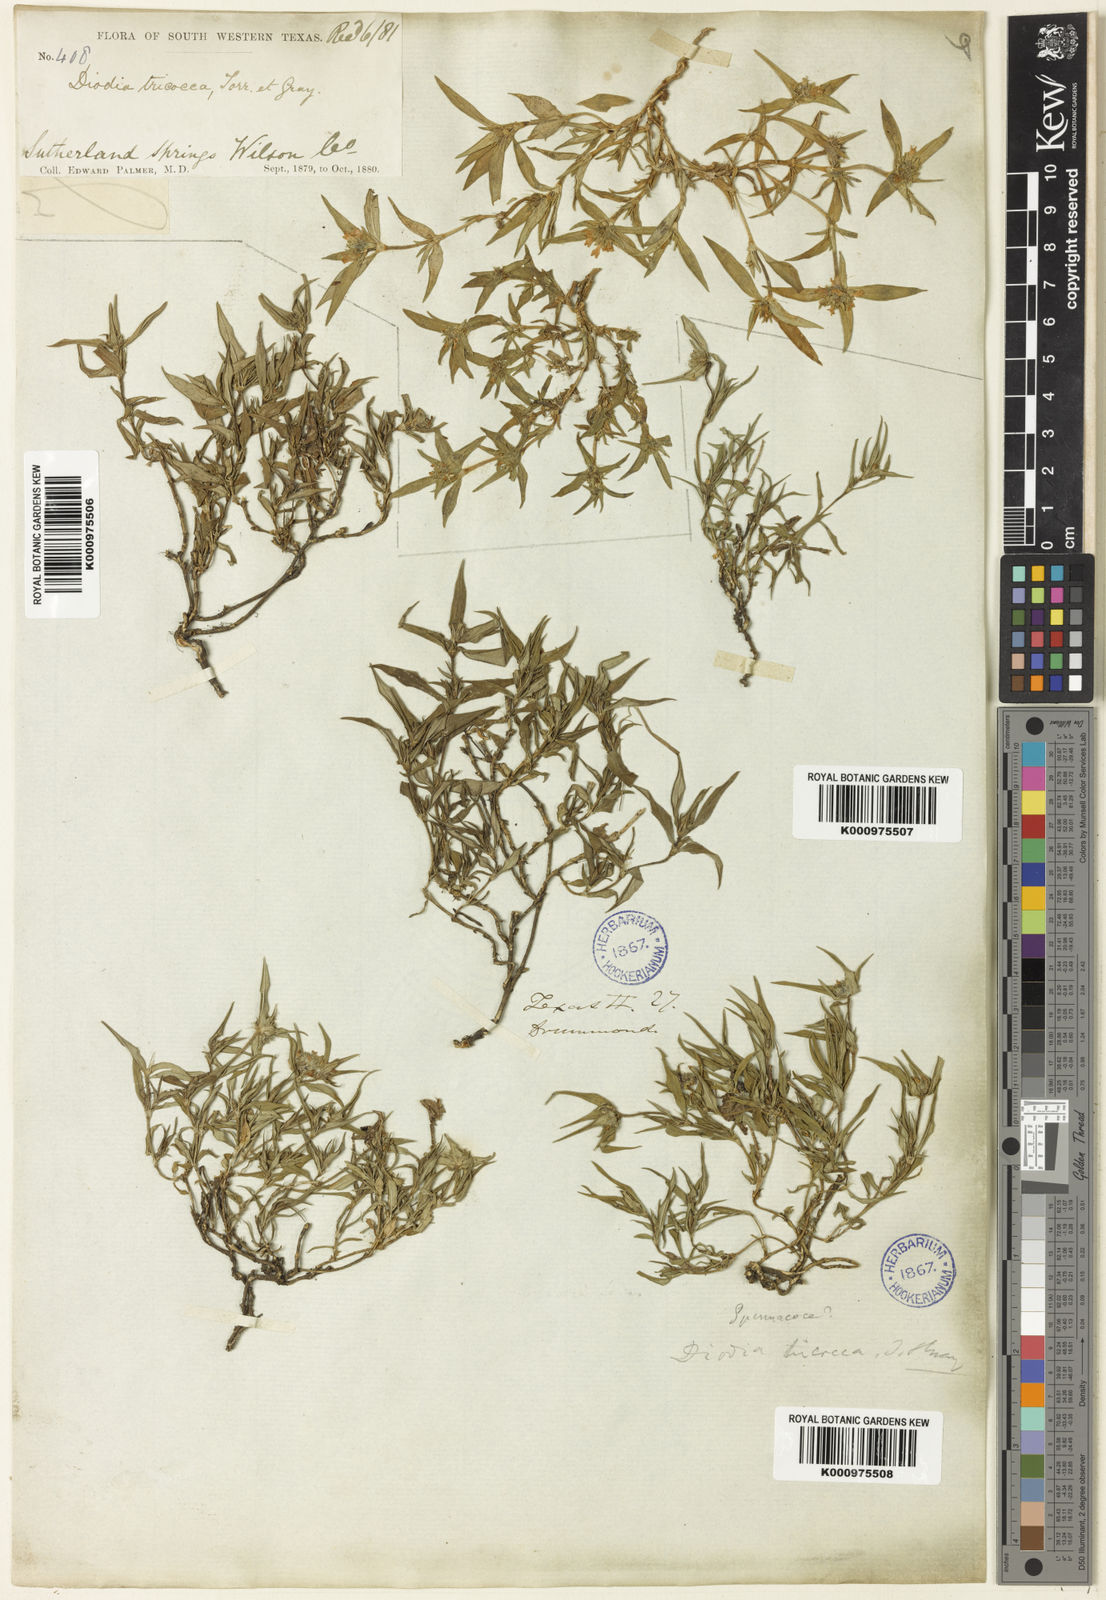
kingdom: Plantae
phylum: Tracheophyta
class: Magnoliopsida
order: Gentianales
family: Rubiaceae
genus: Richardia
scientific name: Richardia tricocca
